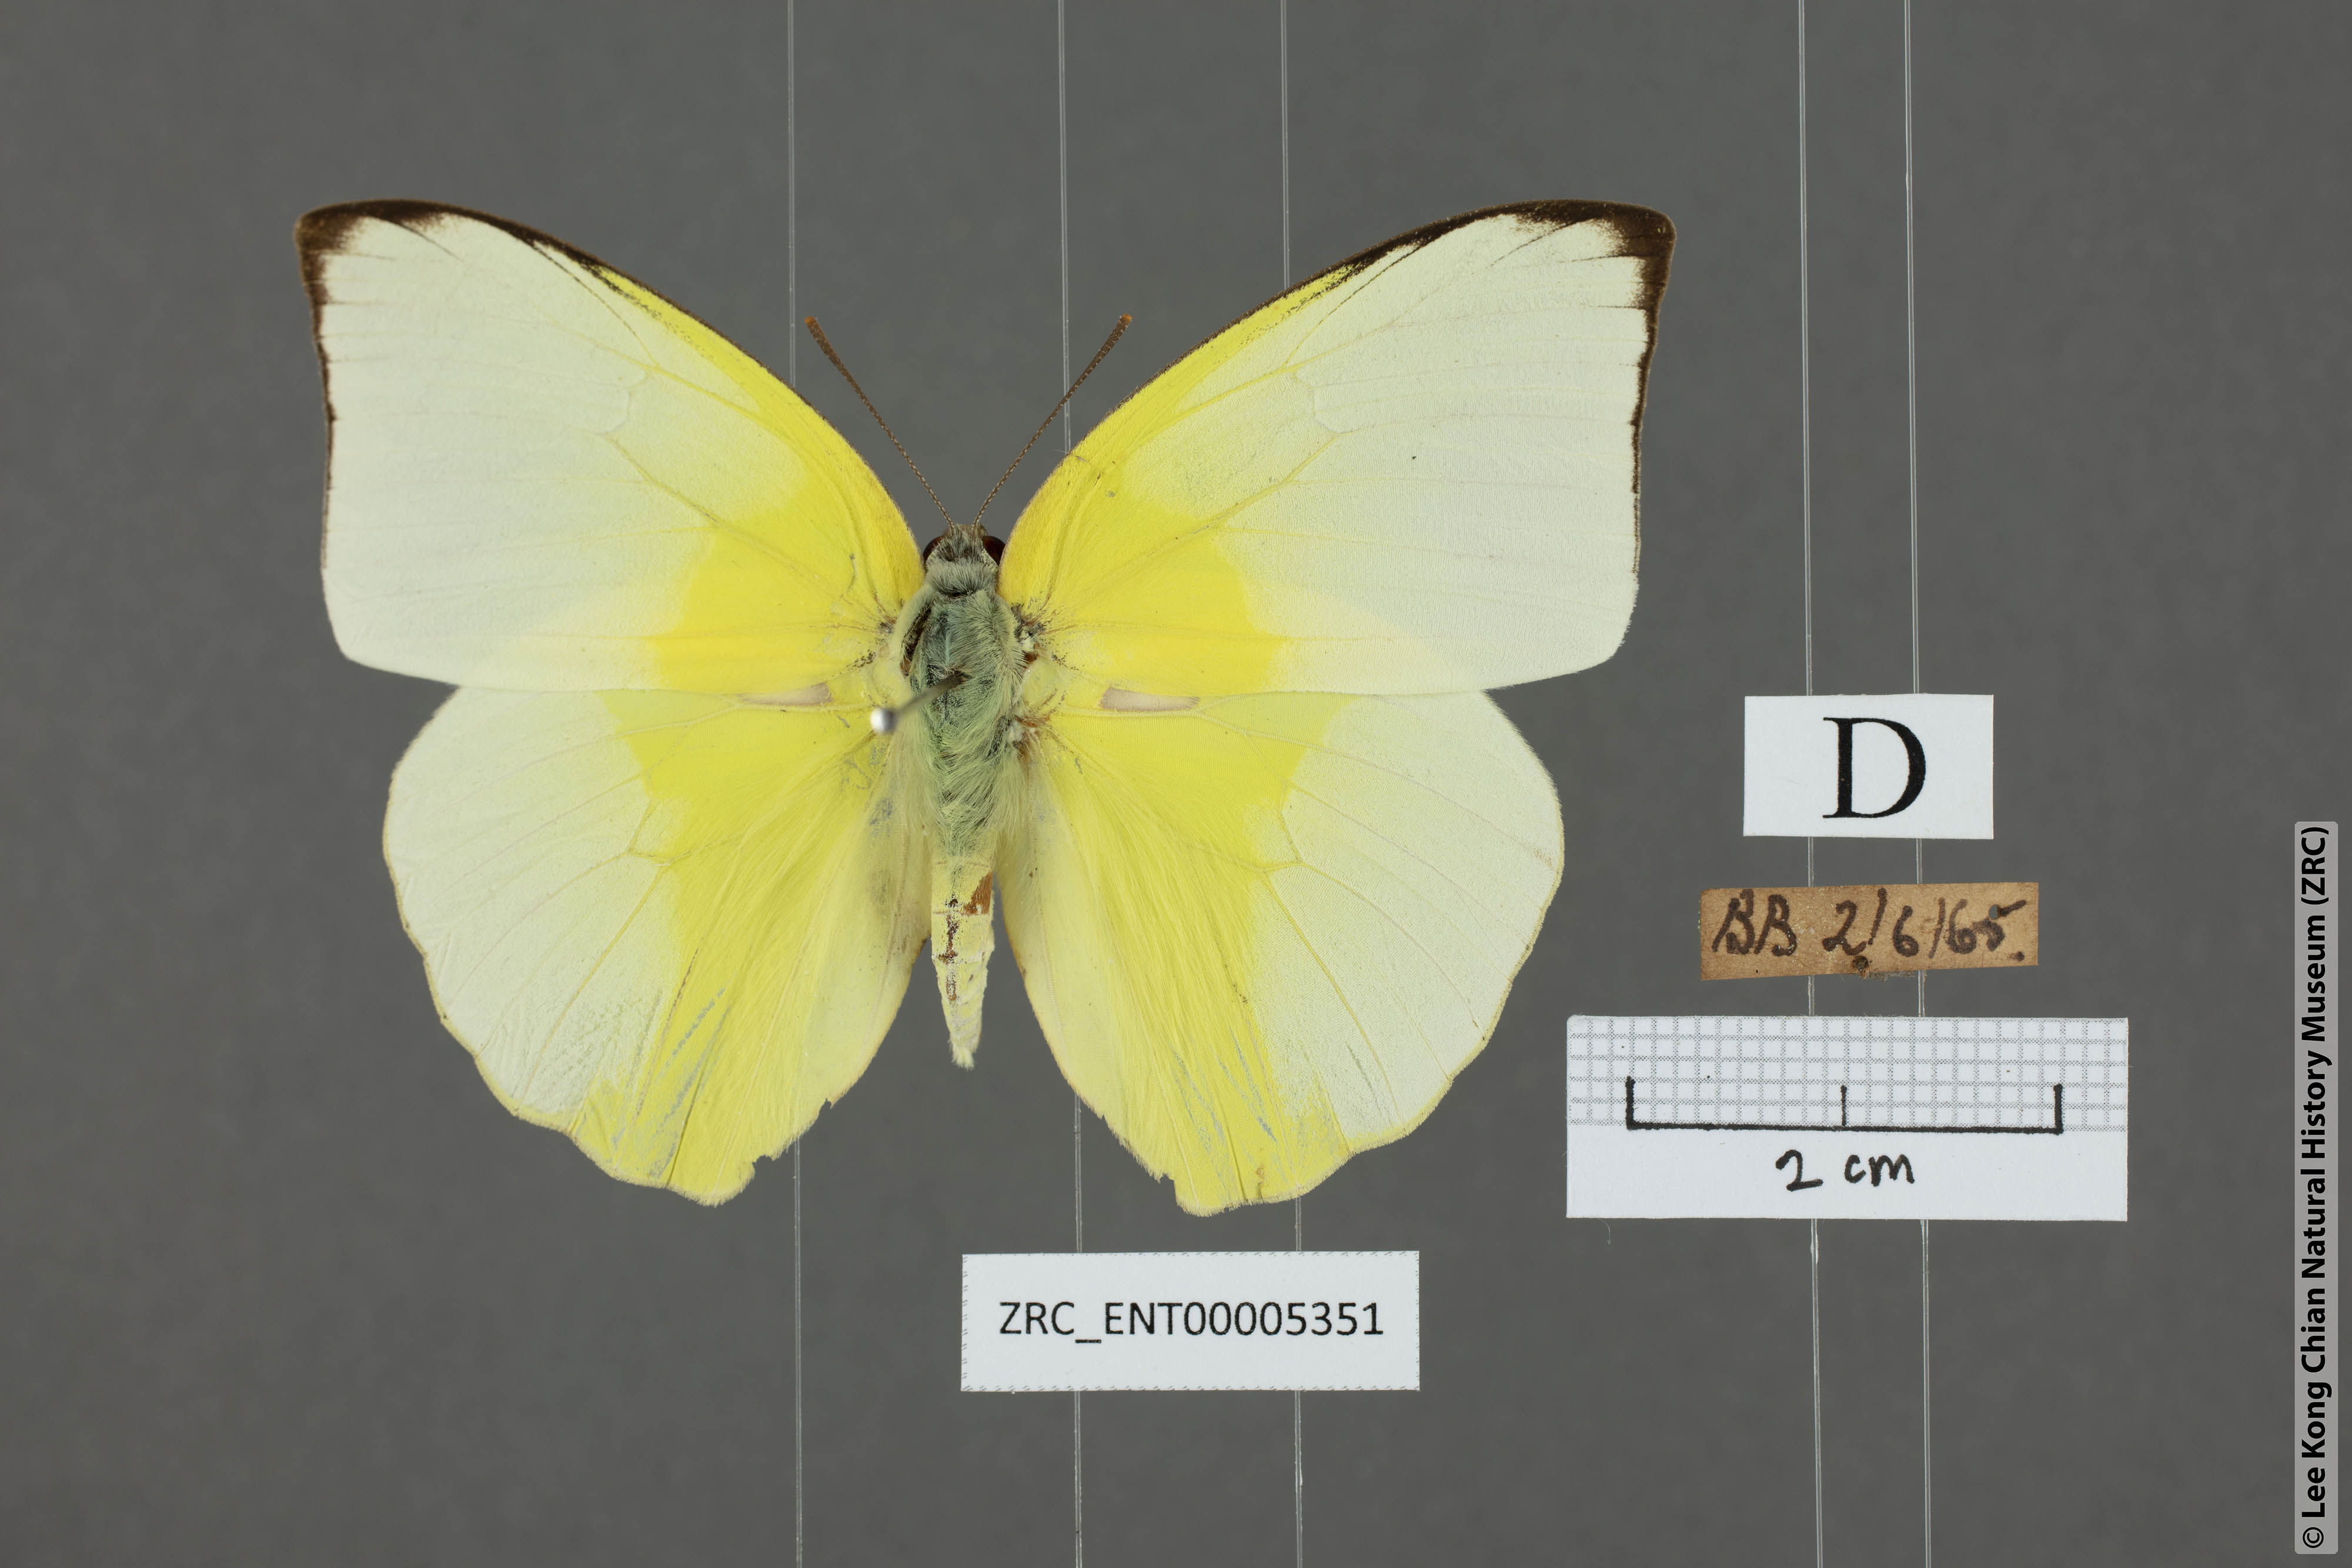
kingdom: Animalia
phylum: Arthropoda
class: Insecta
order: Lepidoptera
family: Pieridae
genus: Catopsilia
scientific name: Catopsilia pomona
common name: Common emigrant
